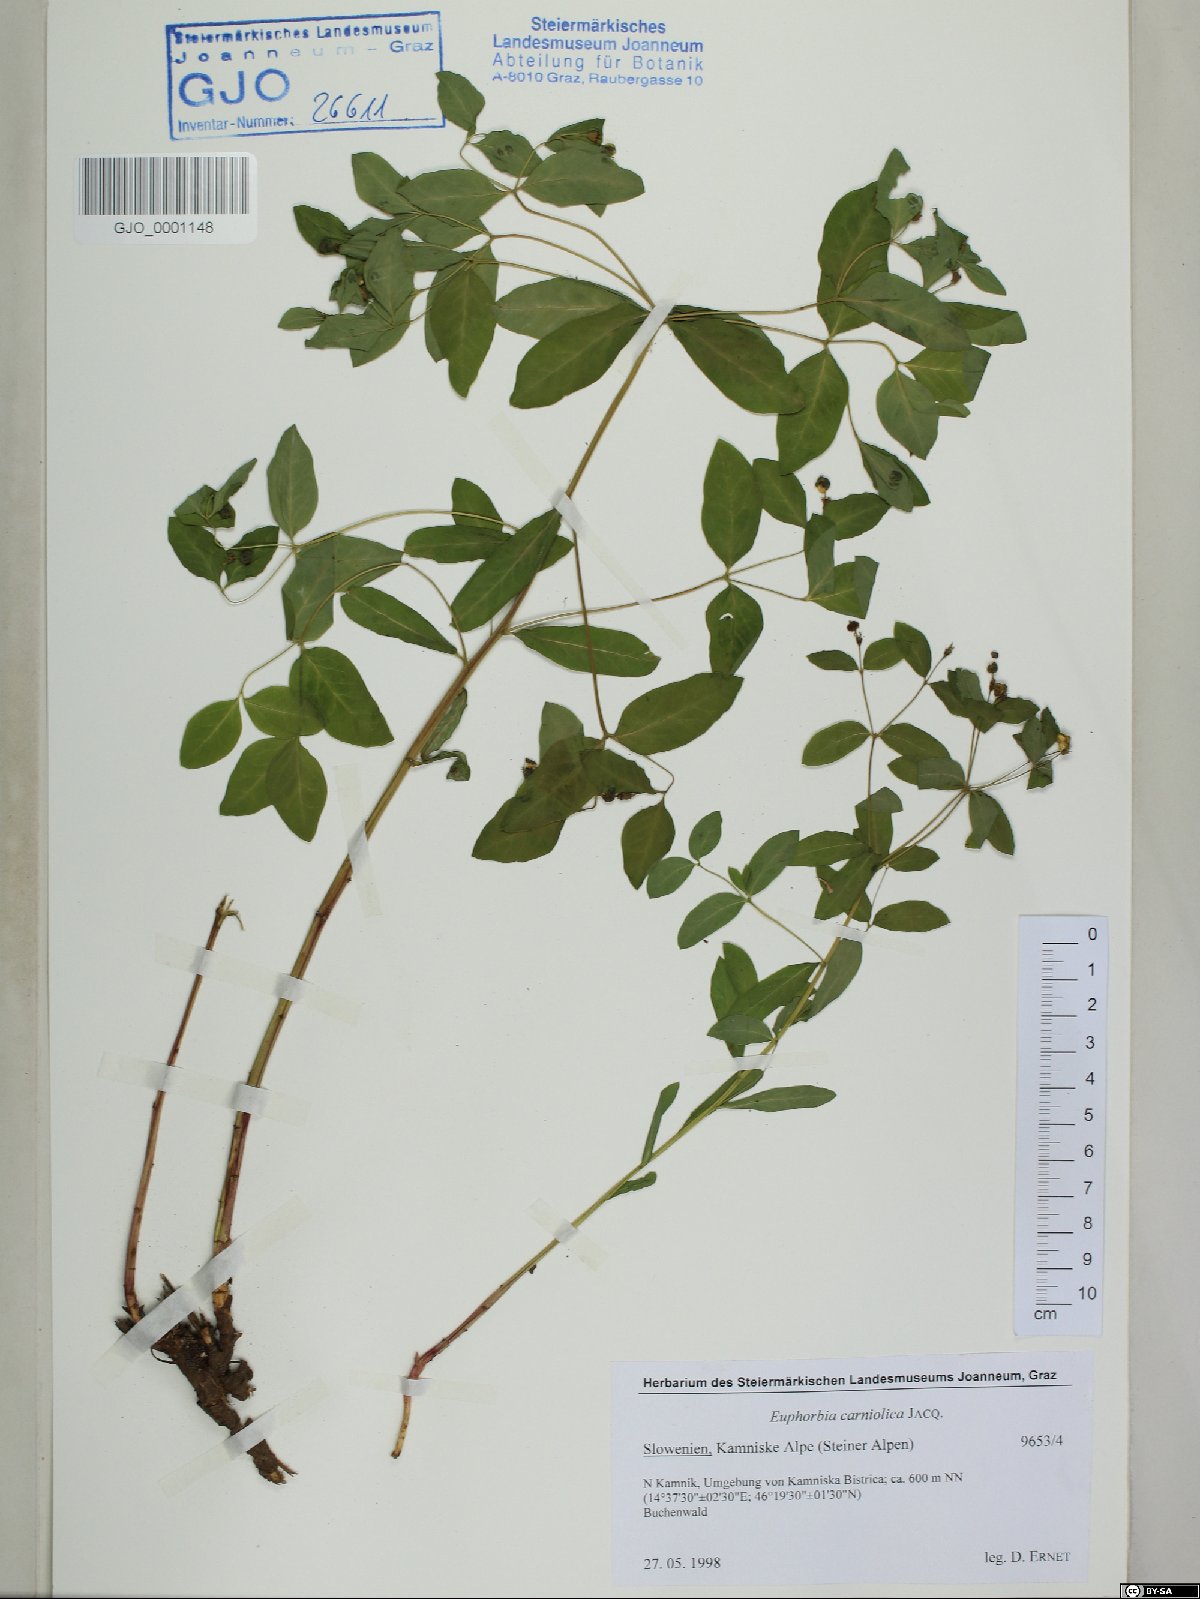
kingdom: Plantae
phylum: Tracheophyta
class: Magnoliopsida
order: Malpighiales
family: Euphorbiaceae
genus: Euphorbia
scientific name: Euphorbia carniolica
